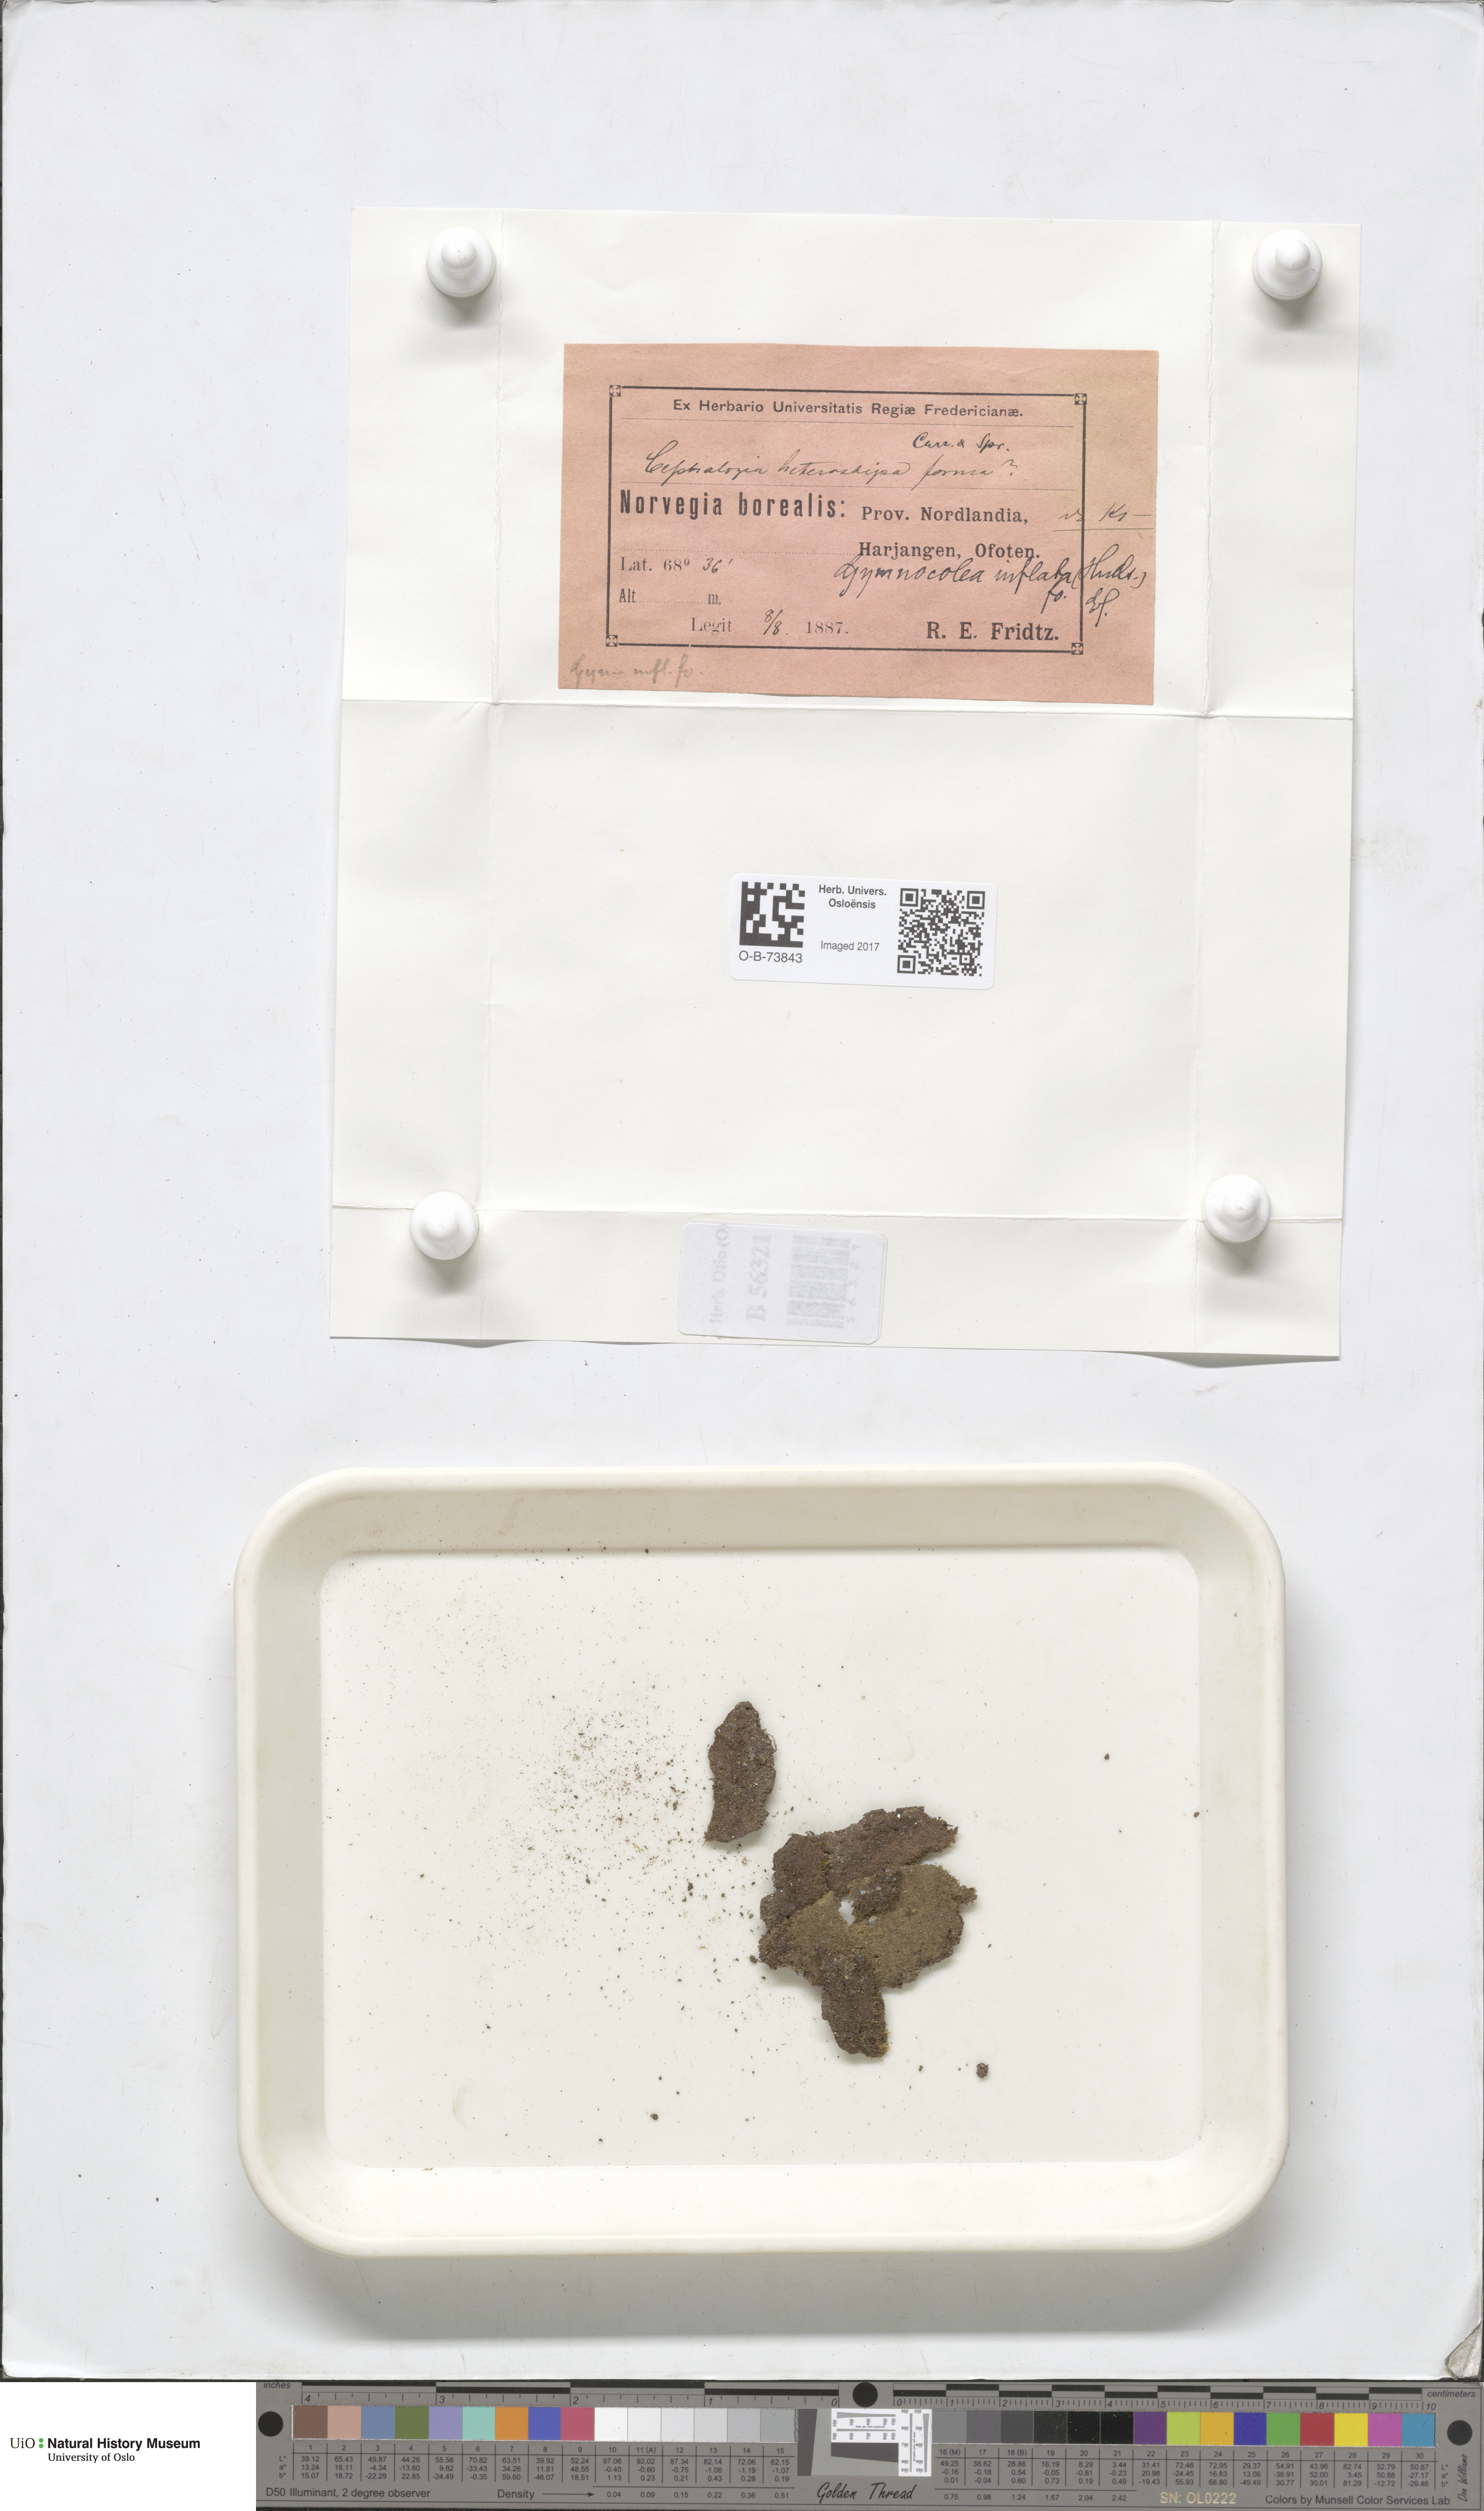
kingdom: Plantae
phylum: Marchantiophyta
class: Jungermanniopsida
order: Jungermanniales
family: Anastrophyllaceae
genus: Gymnocolea
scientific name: Gymnocolea inflata
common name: Inflated notchwort
